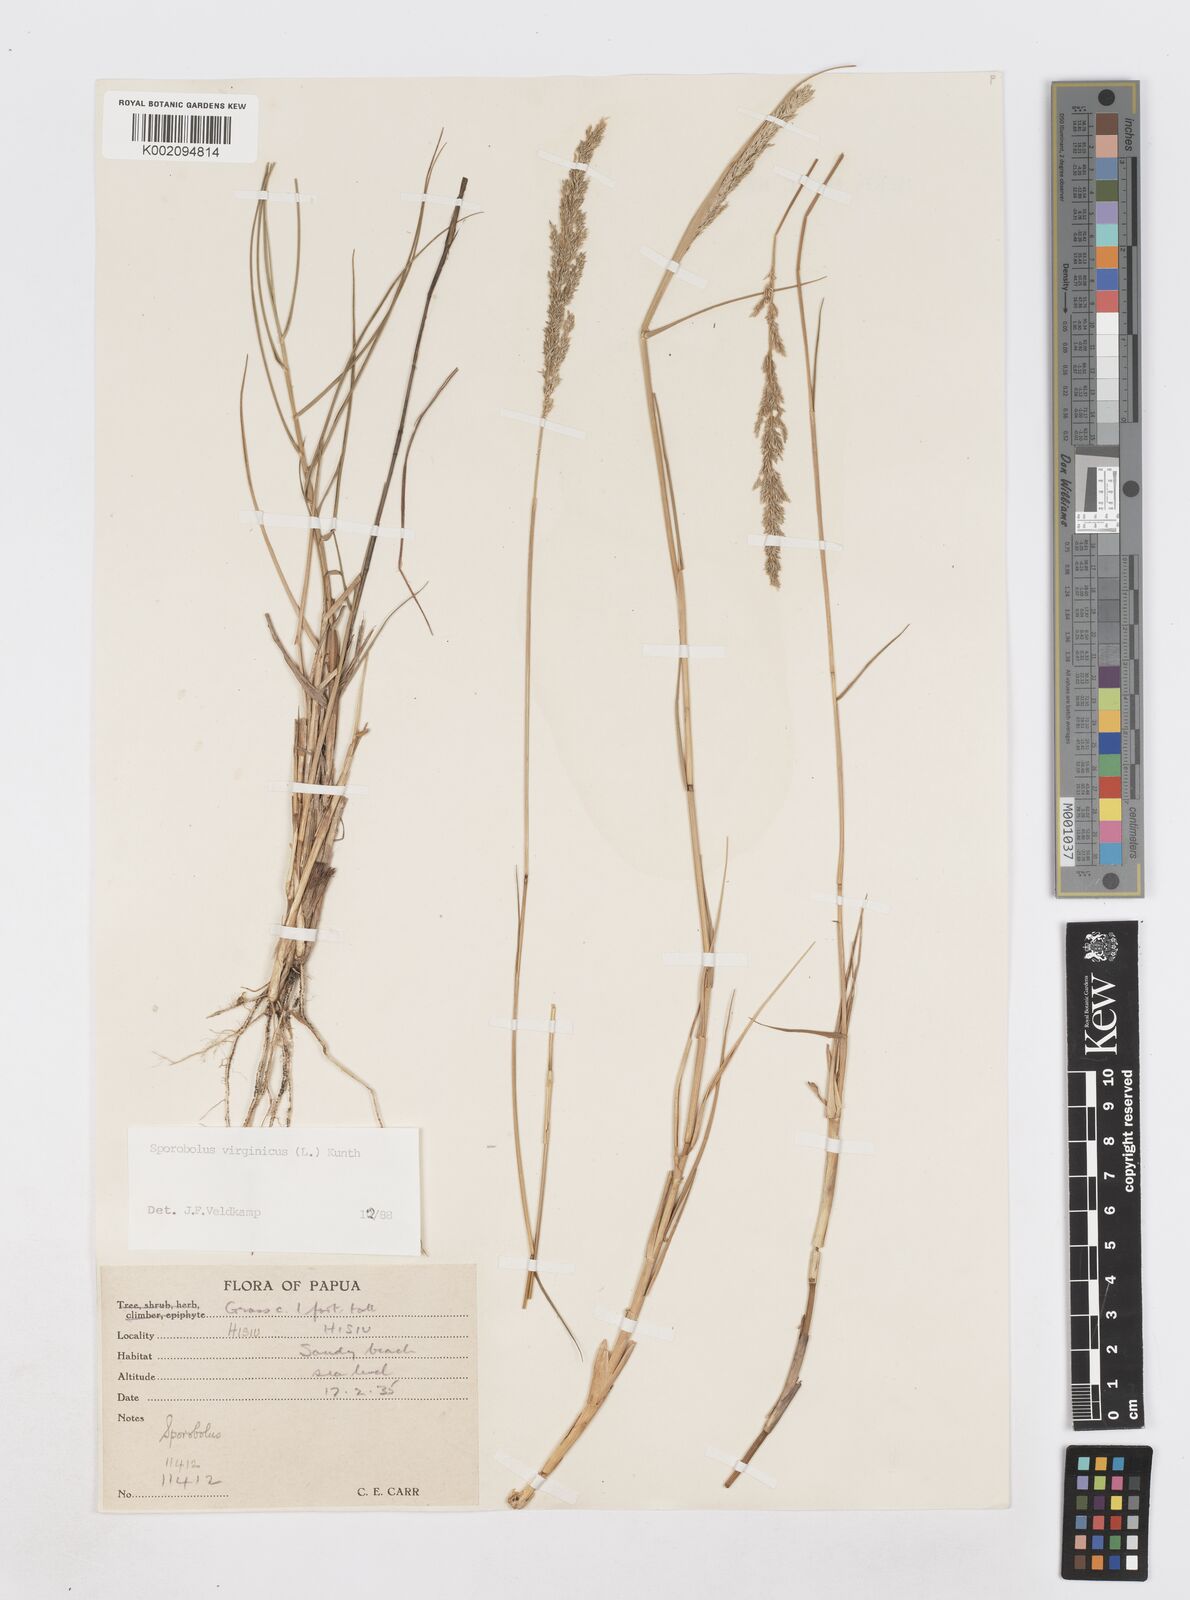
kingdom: Plantae
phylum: Tracheophyta
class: Liliopsida
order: Poales
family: Poaceae
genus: Sporobolus
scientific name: Sporobolus virginicus
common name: Beach dropseed
